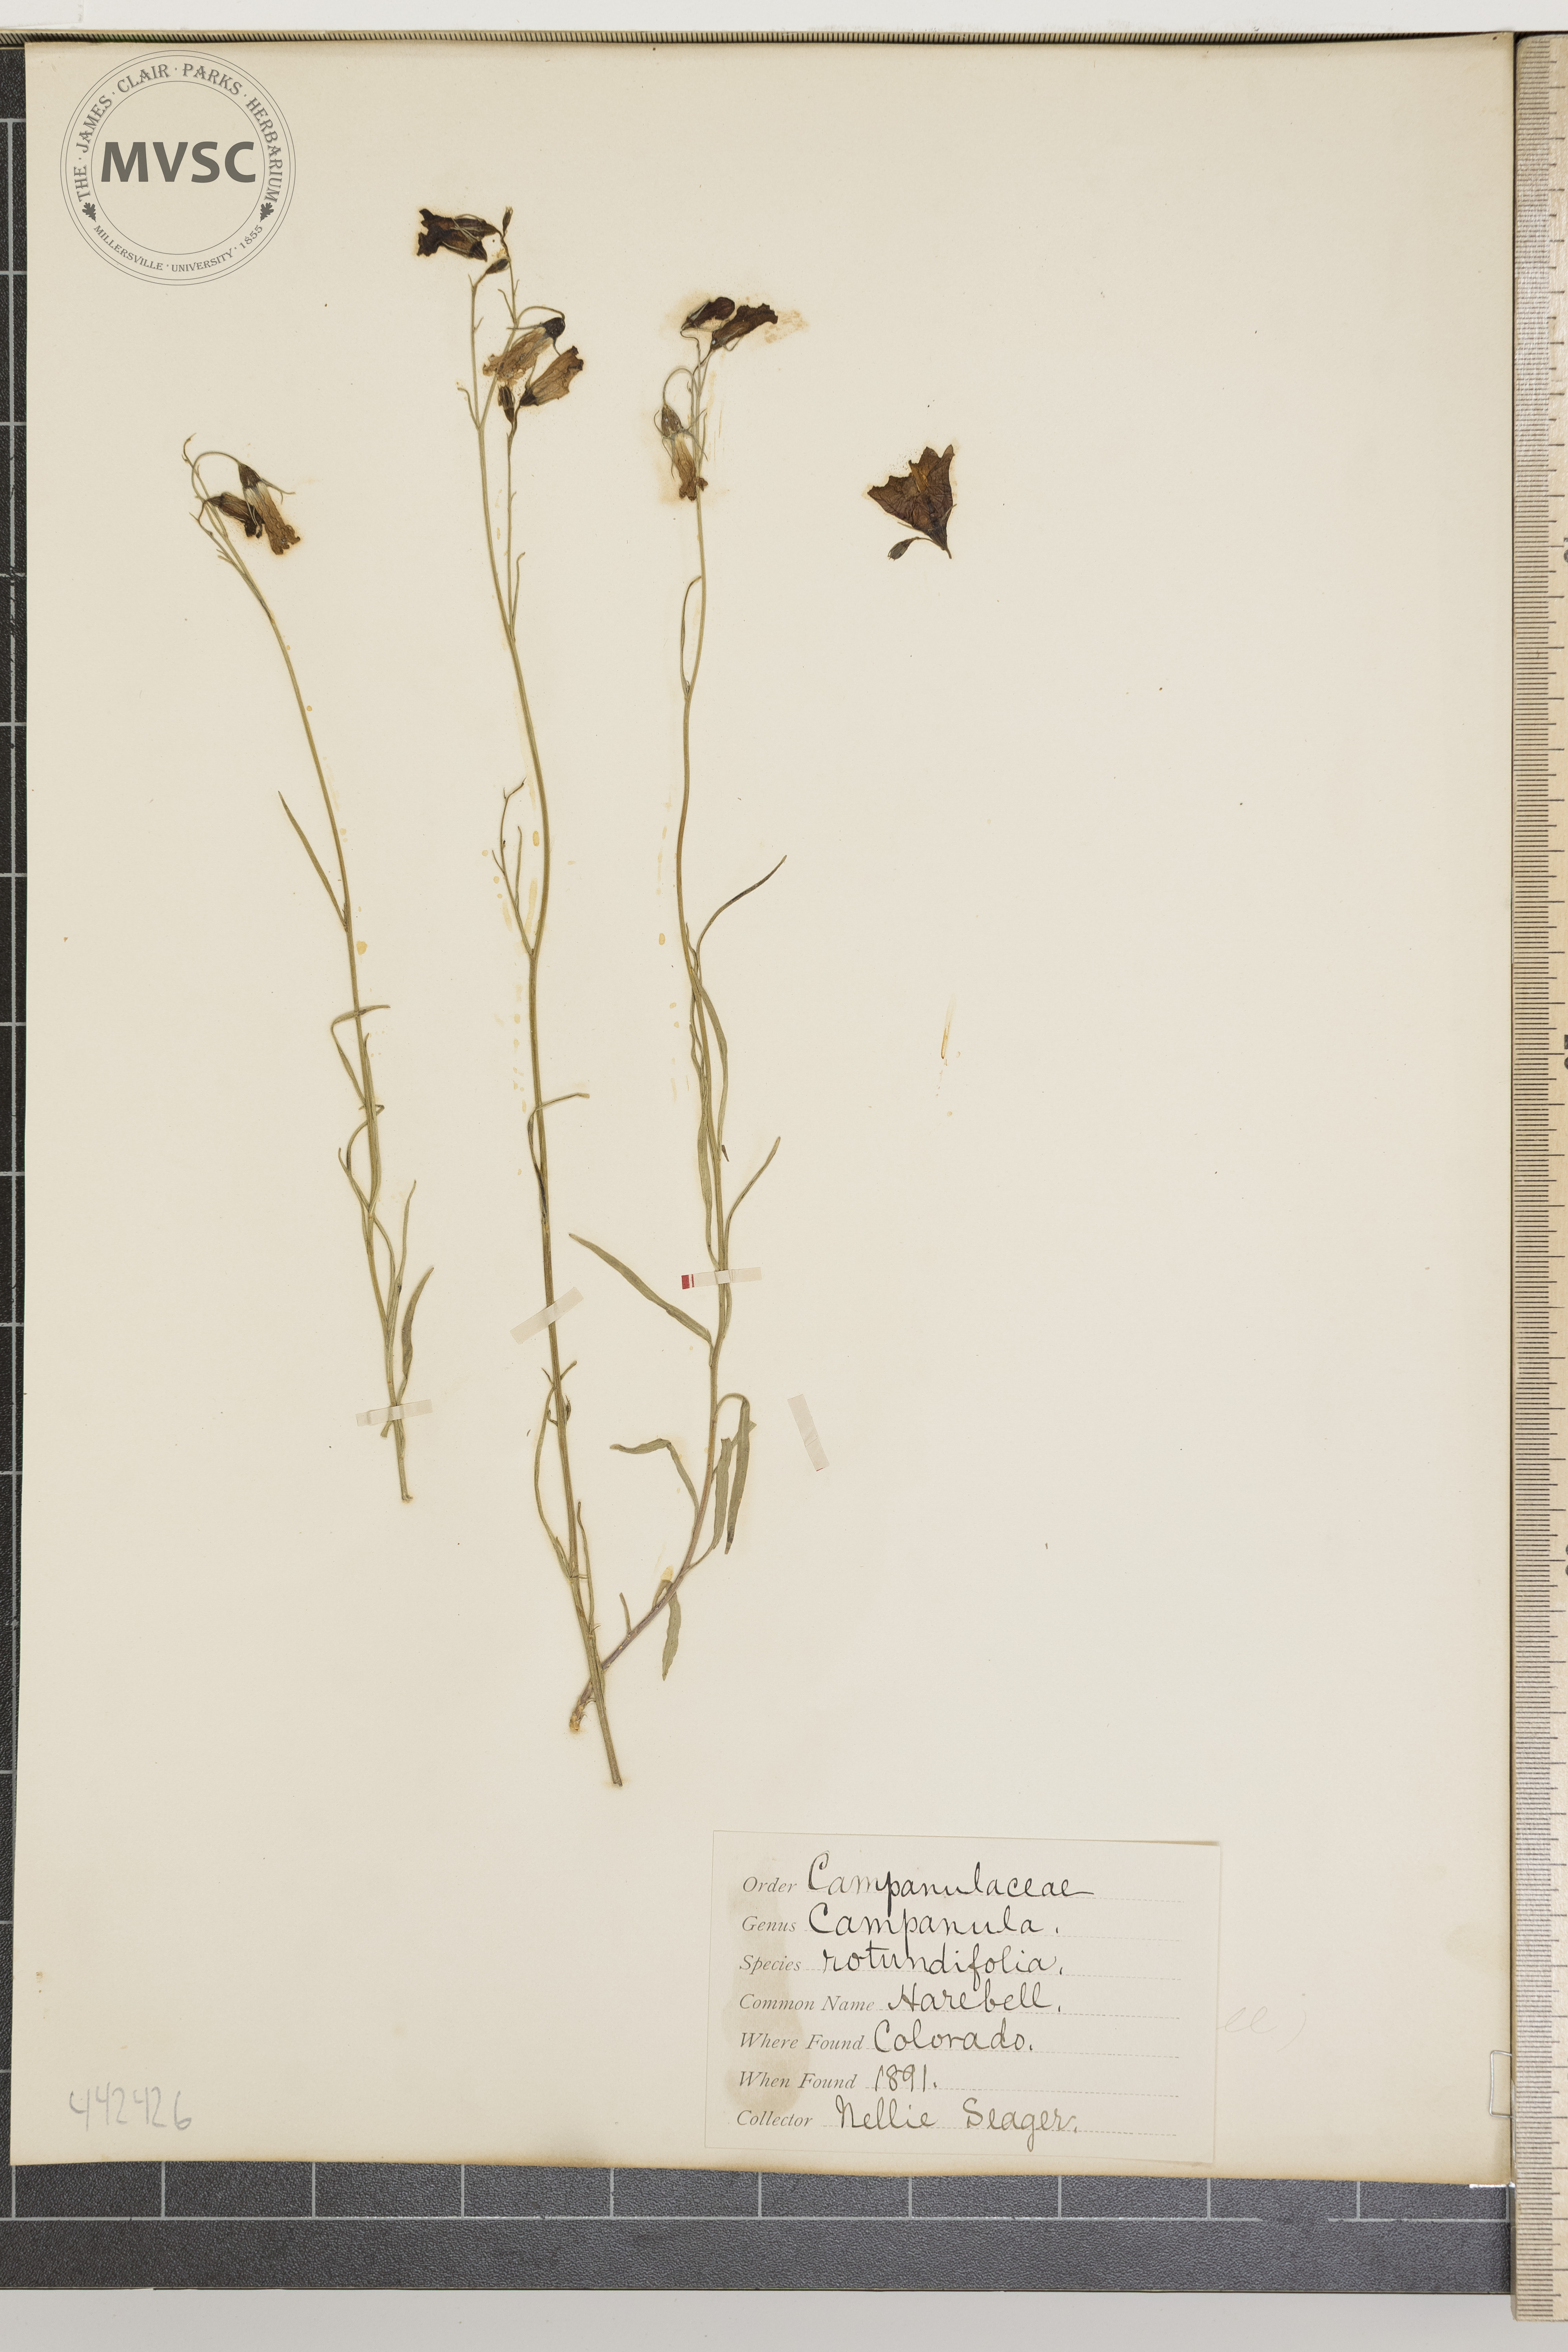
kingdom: Plantae
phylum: Tracheophyta
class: Magnoliopsida
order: Asterales
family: Campanulaceae
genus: Campanula
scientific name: Campanula rotundifolia
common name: Harebell
